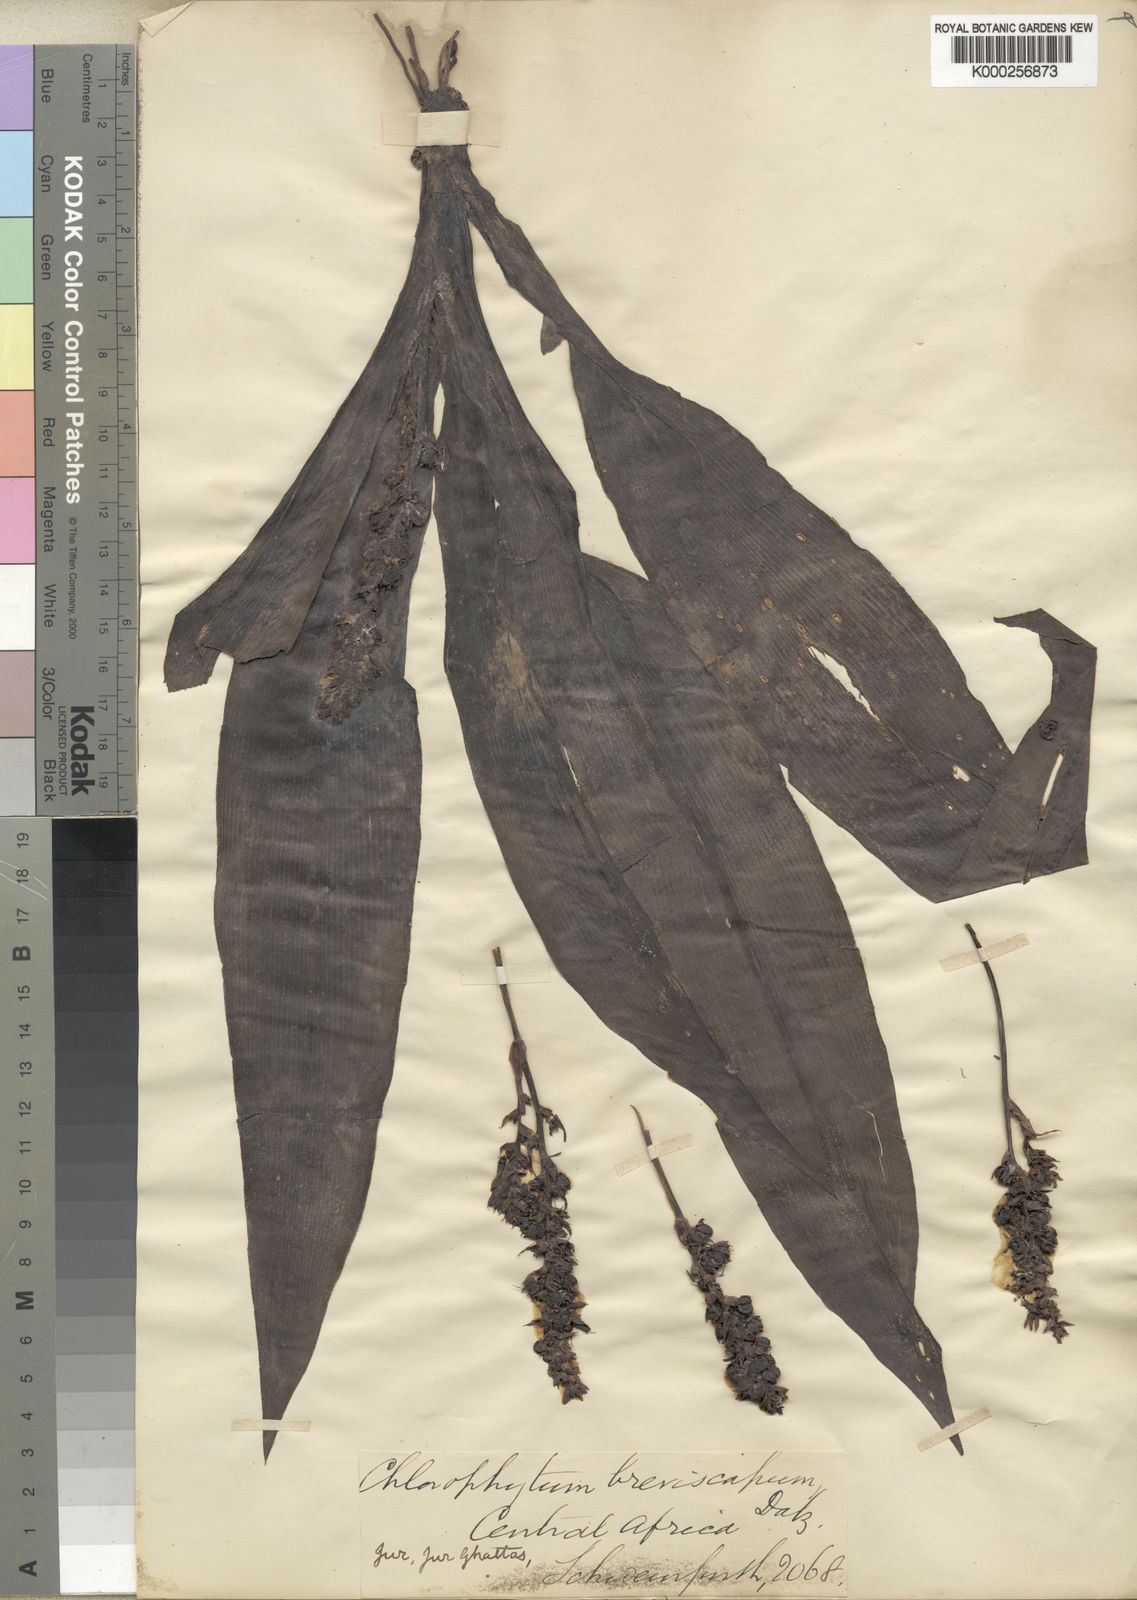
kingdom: Plantae
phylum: Tracheophyta
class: Liliopsida
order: Asparagales
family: Asparagaceae
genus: Chlorophytum
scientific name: Chlorophytum macrophyllum
